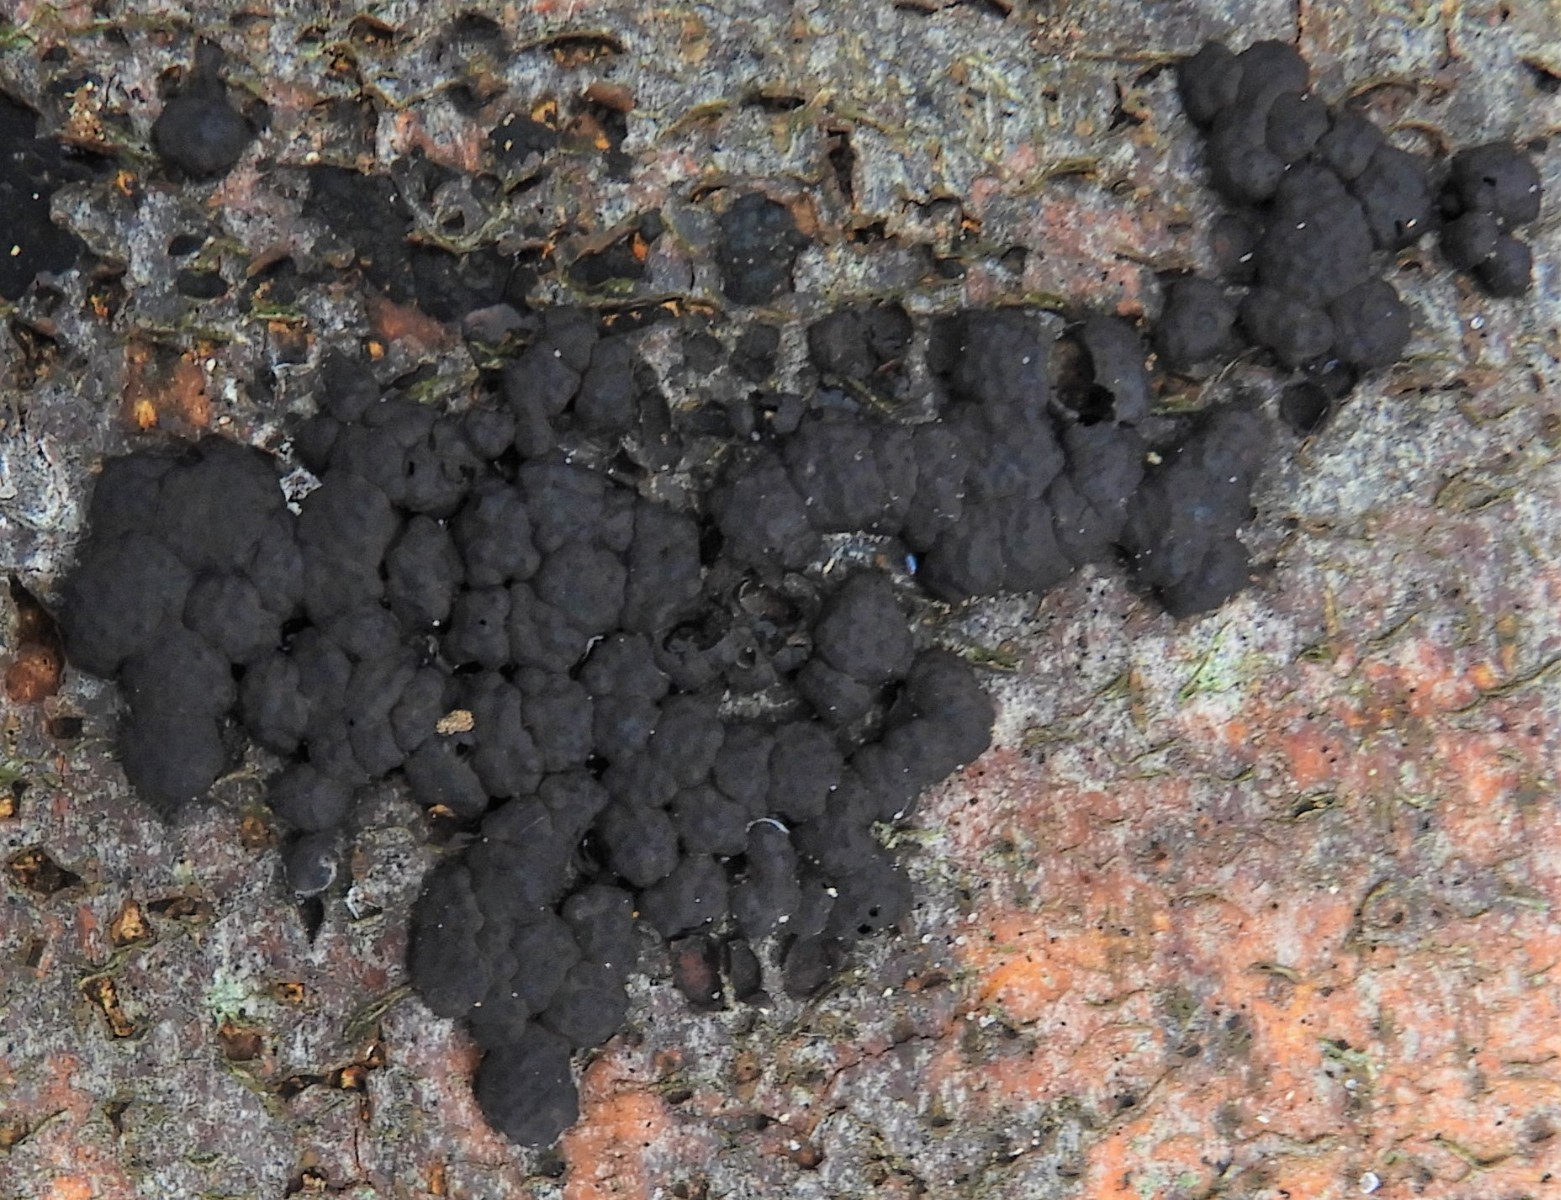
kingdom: Fungi
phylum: Ascomycota
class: Sordariomycetes
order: Xylariales
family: Hypoxylaceae
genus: Jackrogersella
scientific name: Jackrogersella cohaerens
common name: sammenflydende kulbær
